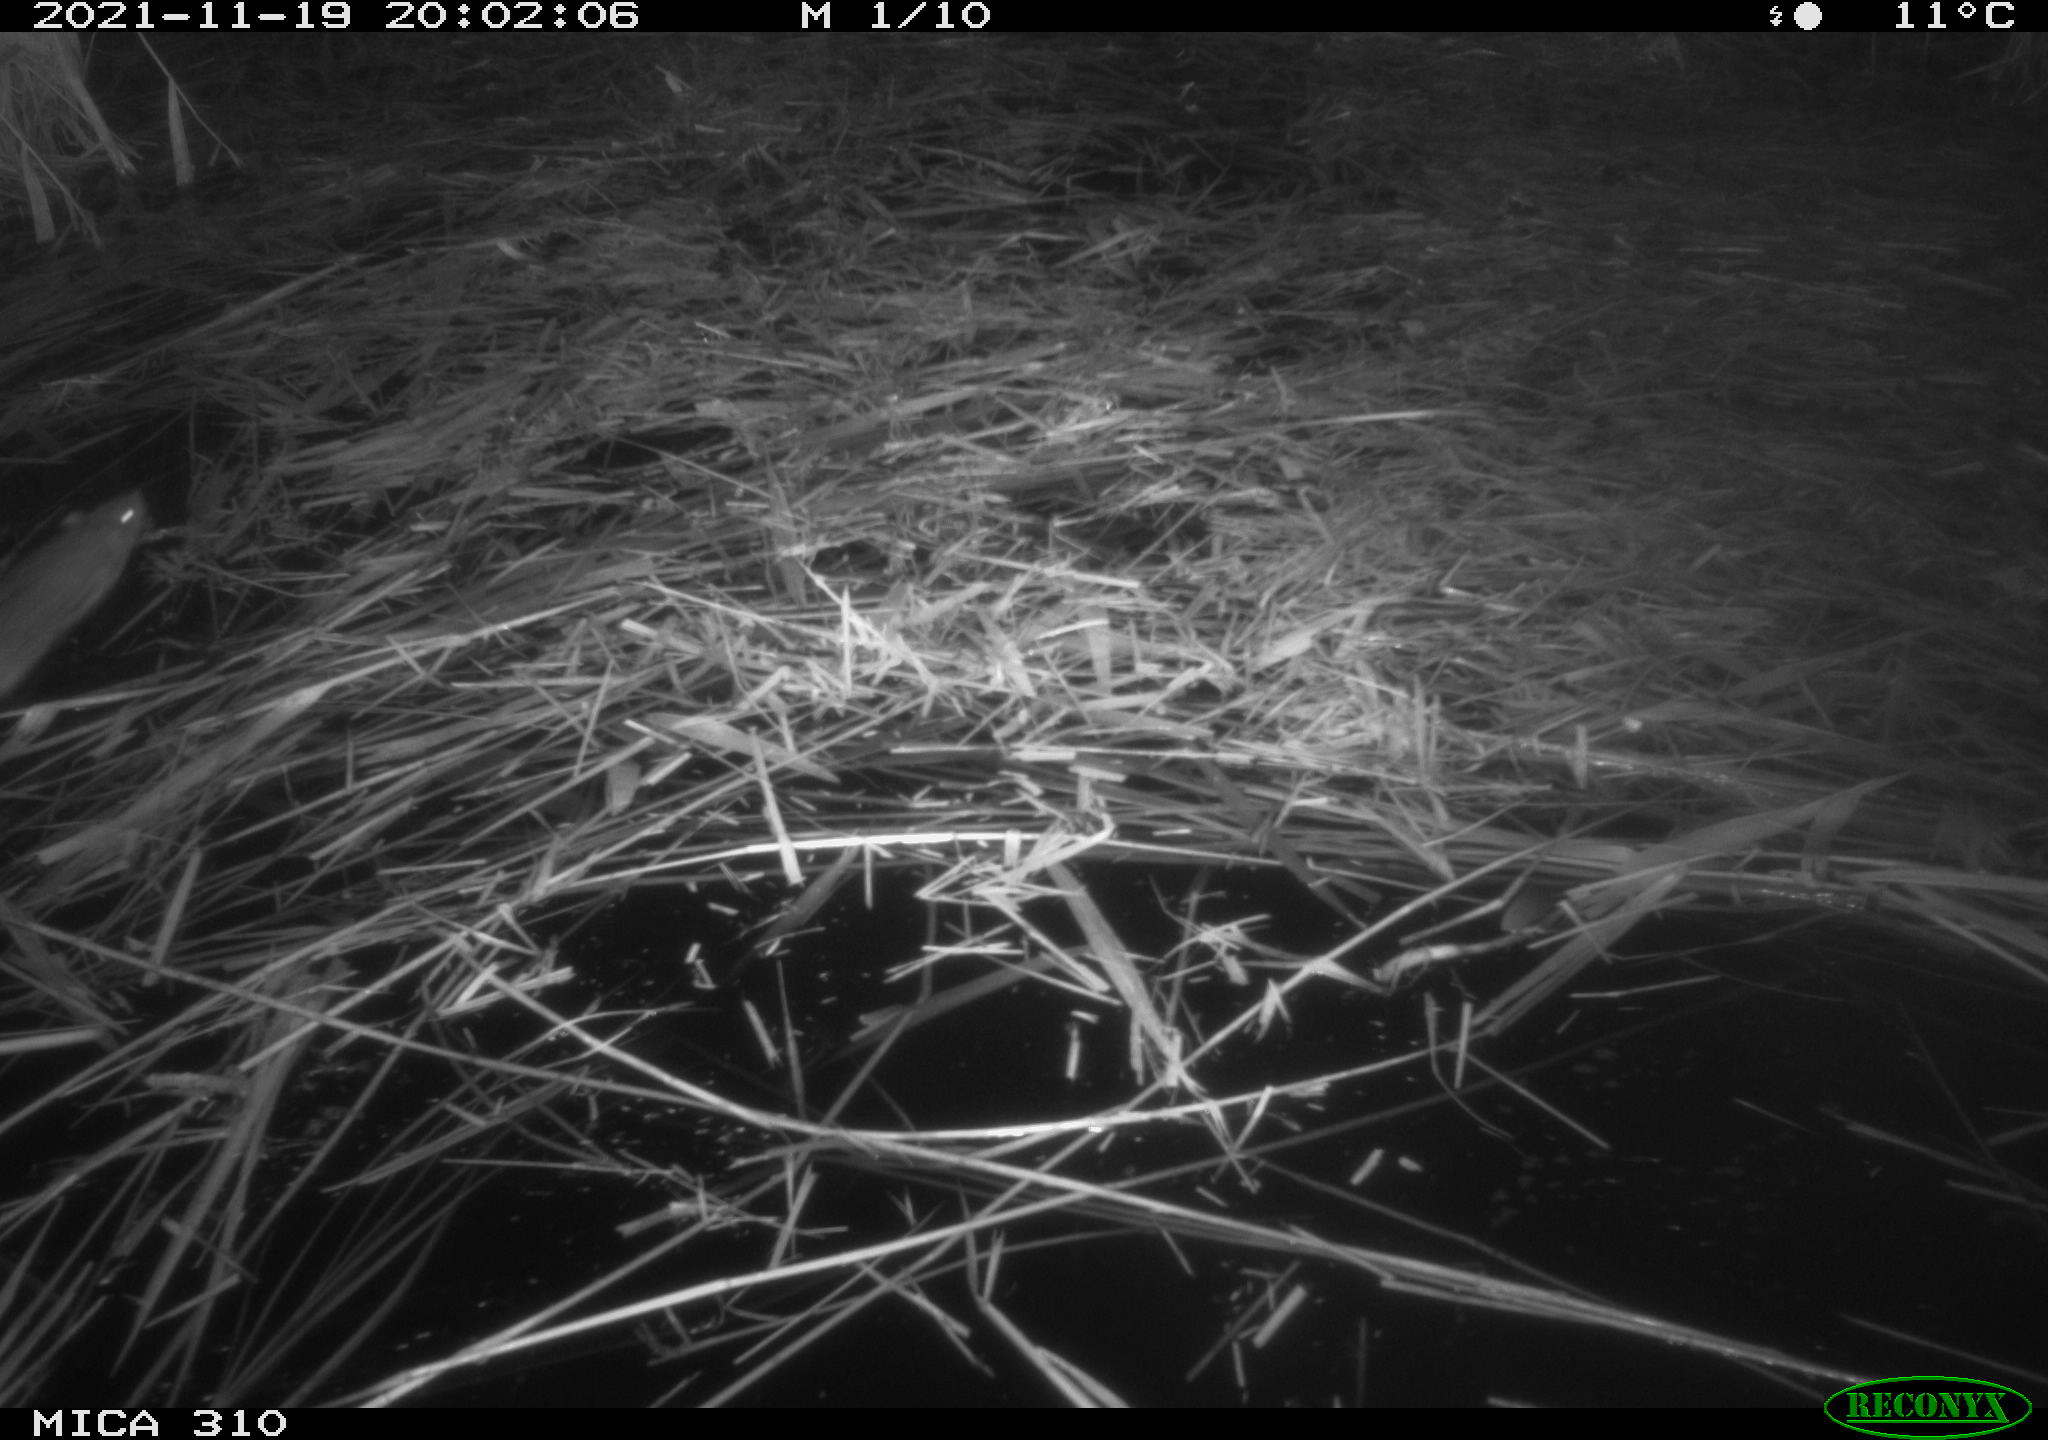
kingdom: Animalia
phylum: Chordata
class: Mammalia
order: Rodentia
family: Muridae
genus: Rattus
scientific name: Rattus norvegicus
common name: Brown rat
